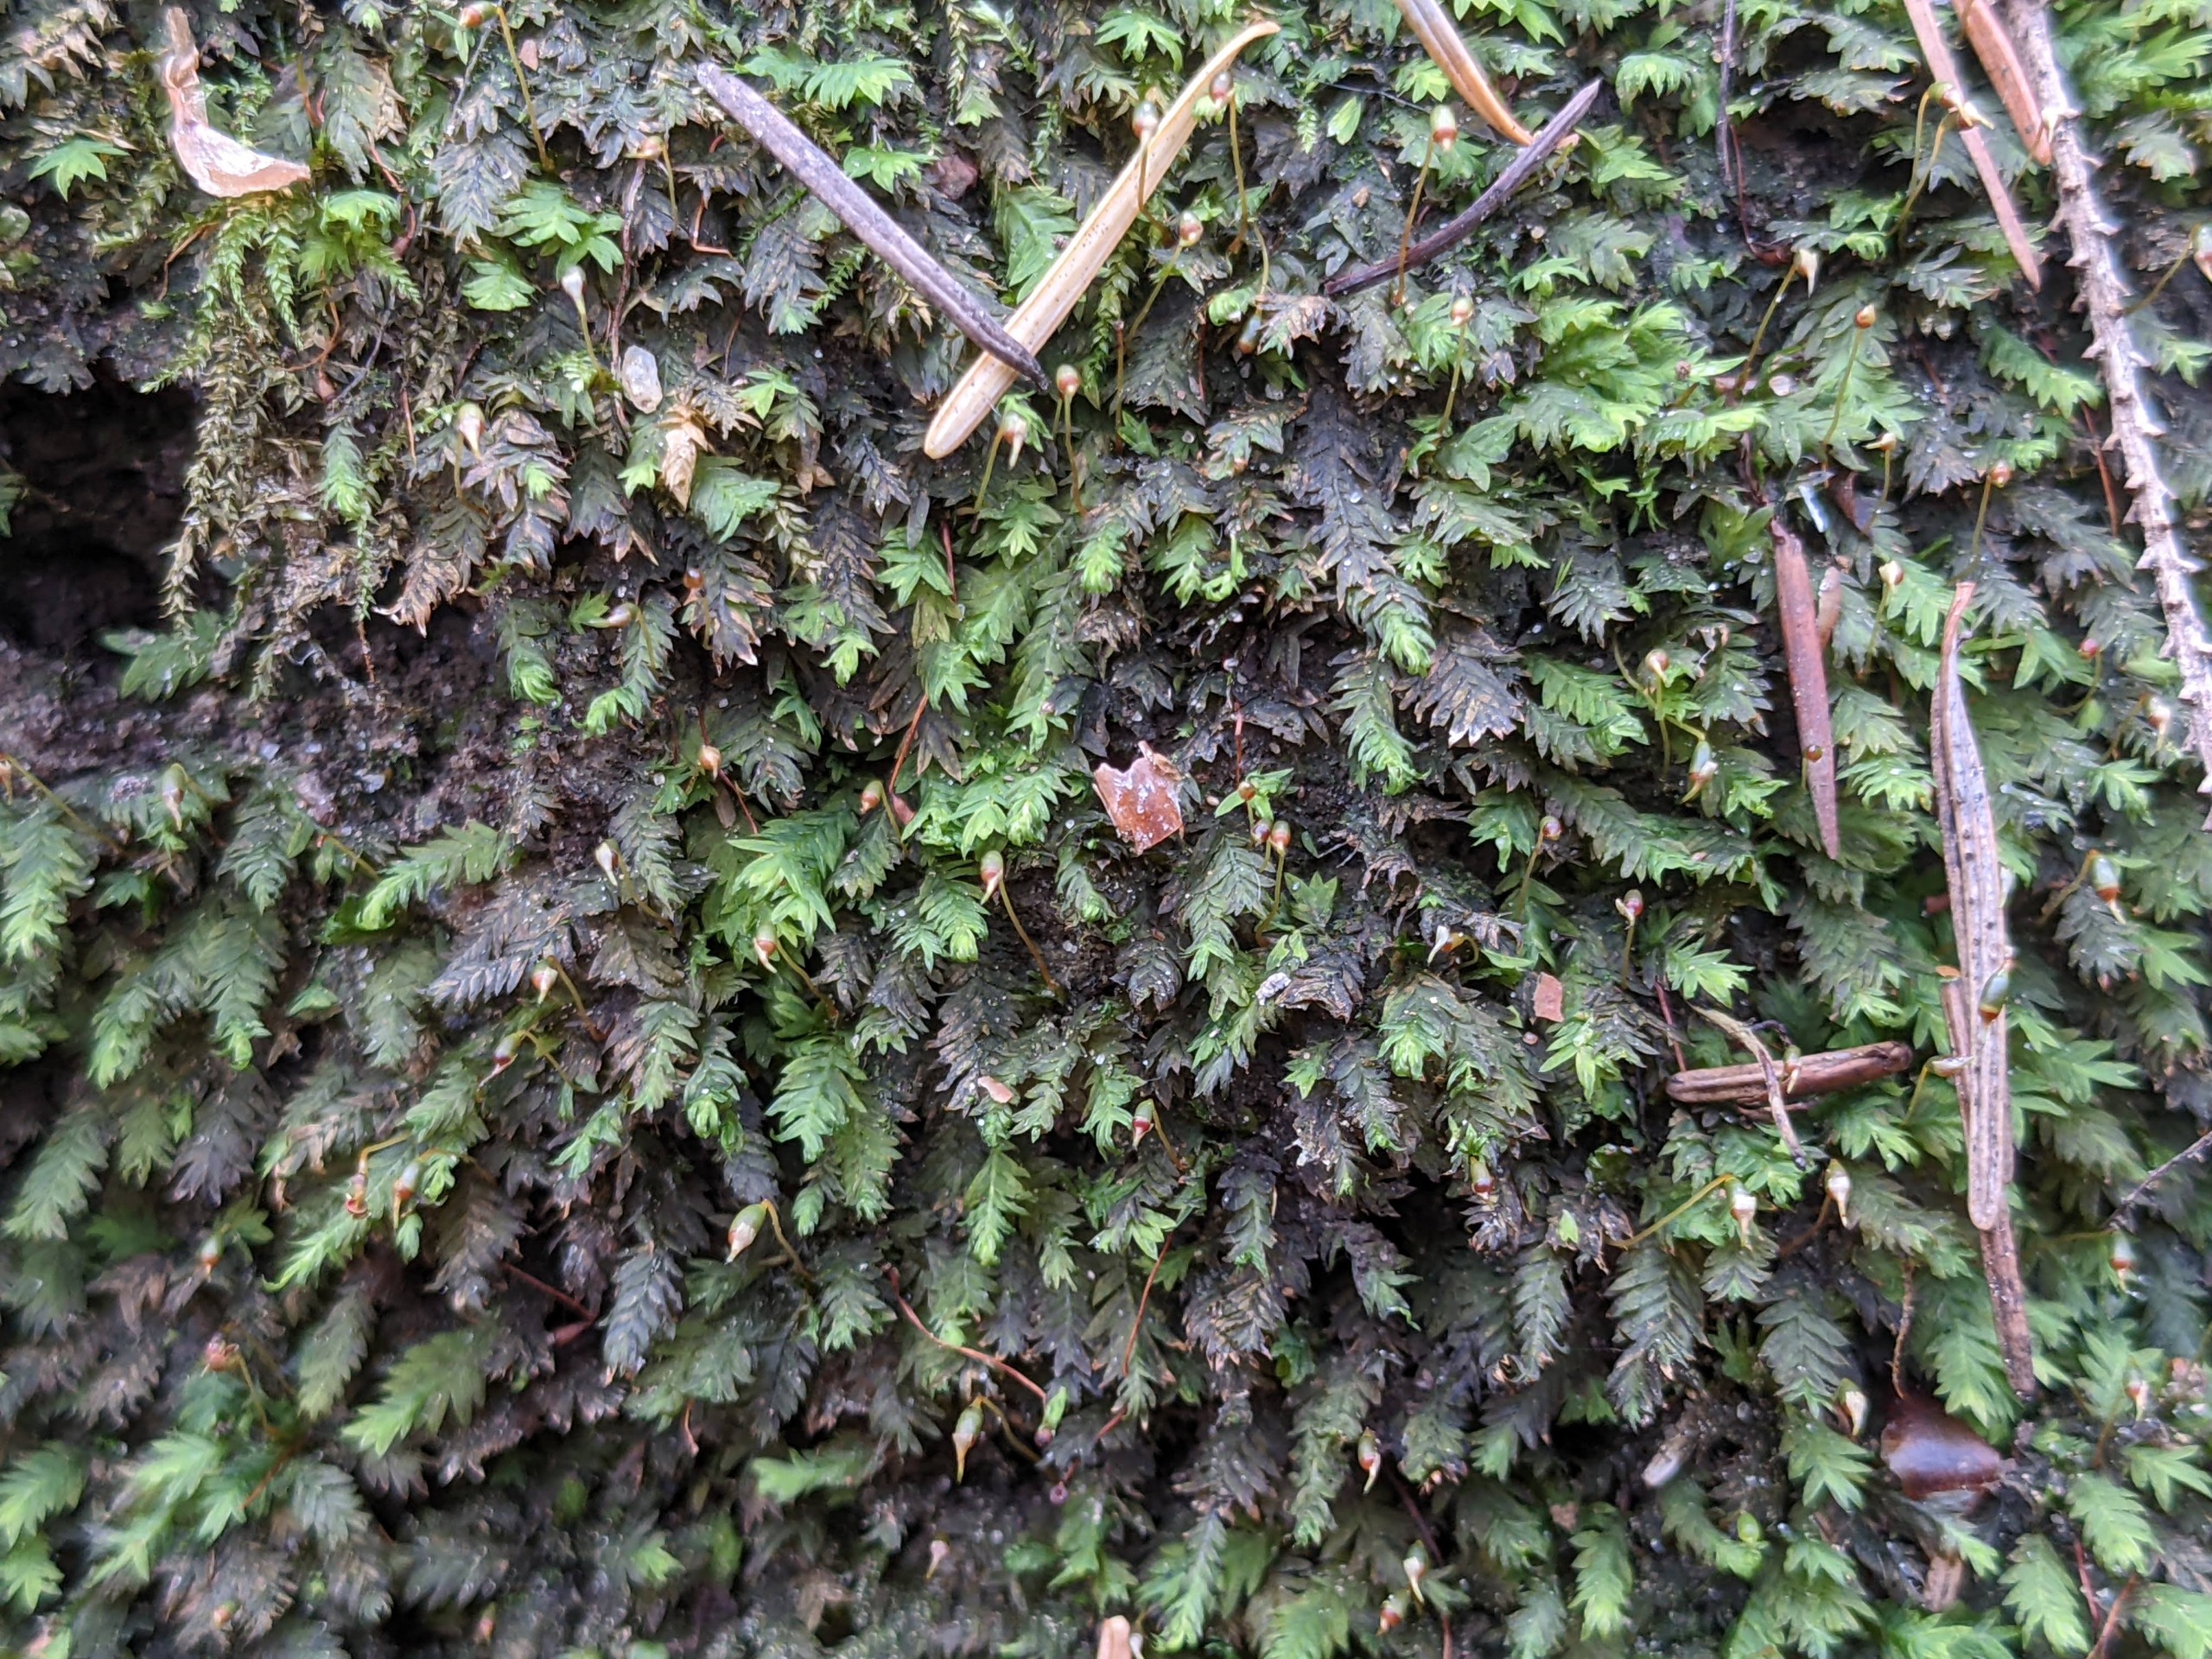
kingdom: Plantae
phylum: Bryophyta
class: Bryopsida
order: Dicranales
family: Fissidentaceae
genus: Fissidens
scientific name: Fissidens taxifolius
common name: Taksbladet rademos
